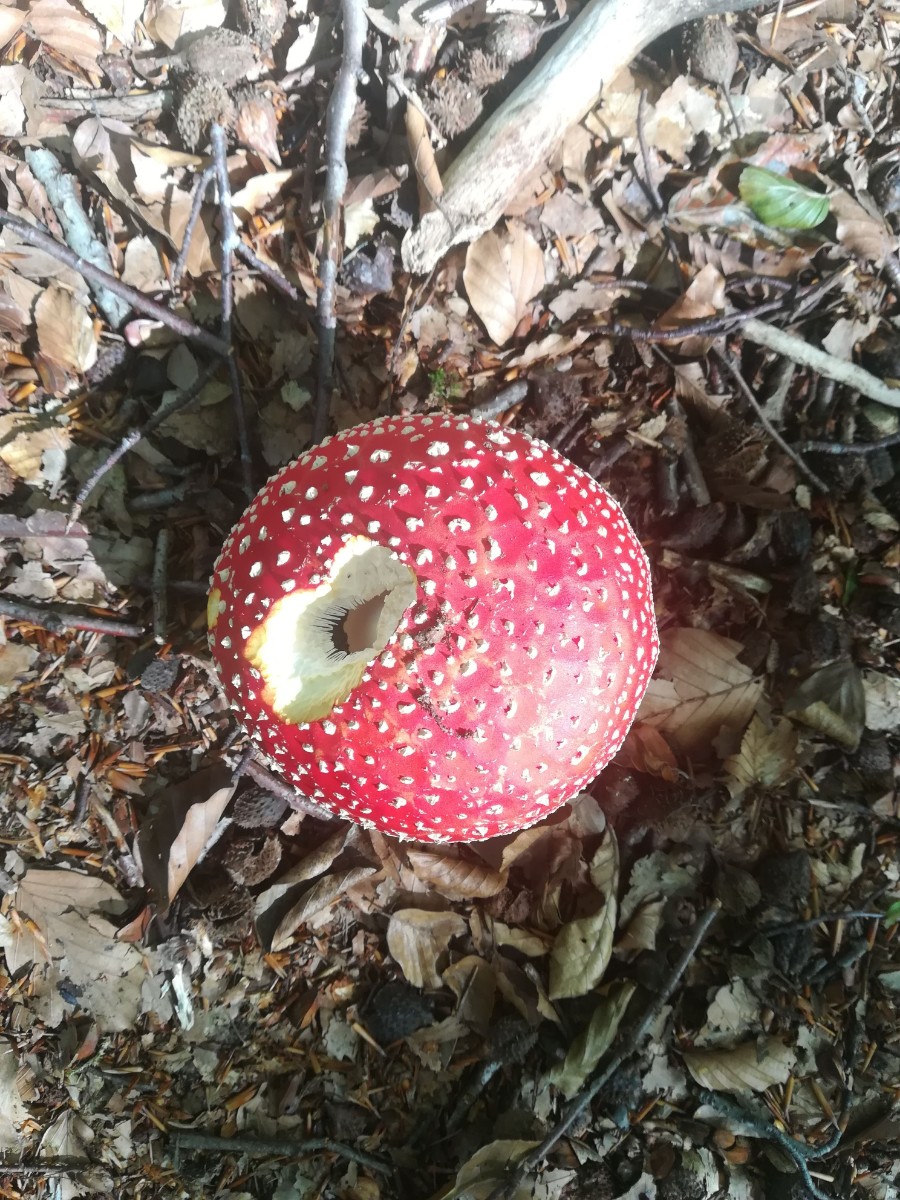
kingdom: Fungi
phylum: Basidiomycota
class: Agaricomycetes
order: Agaricales
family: Amanitaceae
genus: Amanita
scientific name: Amanita muscaria
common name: rød fluesvamp
